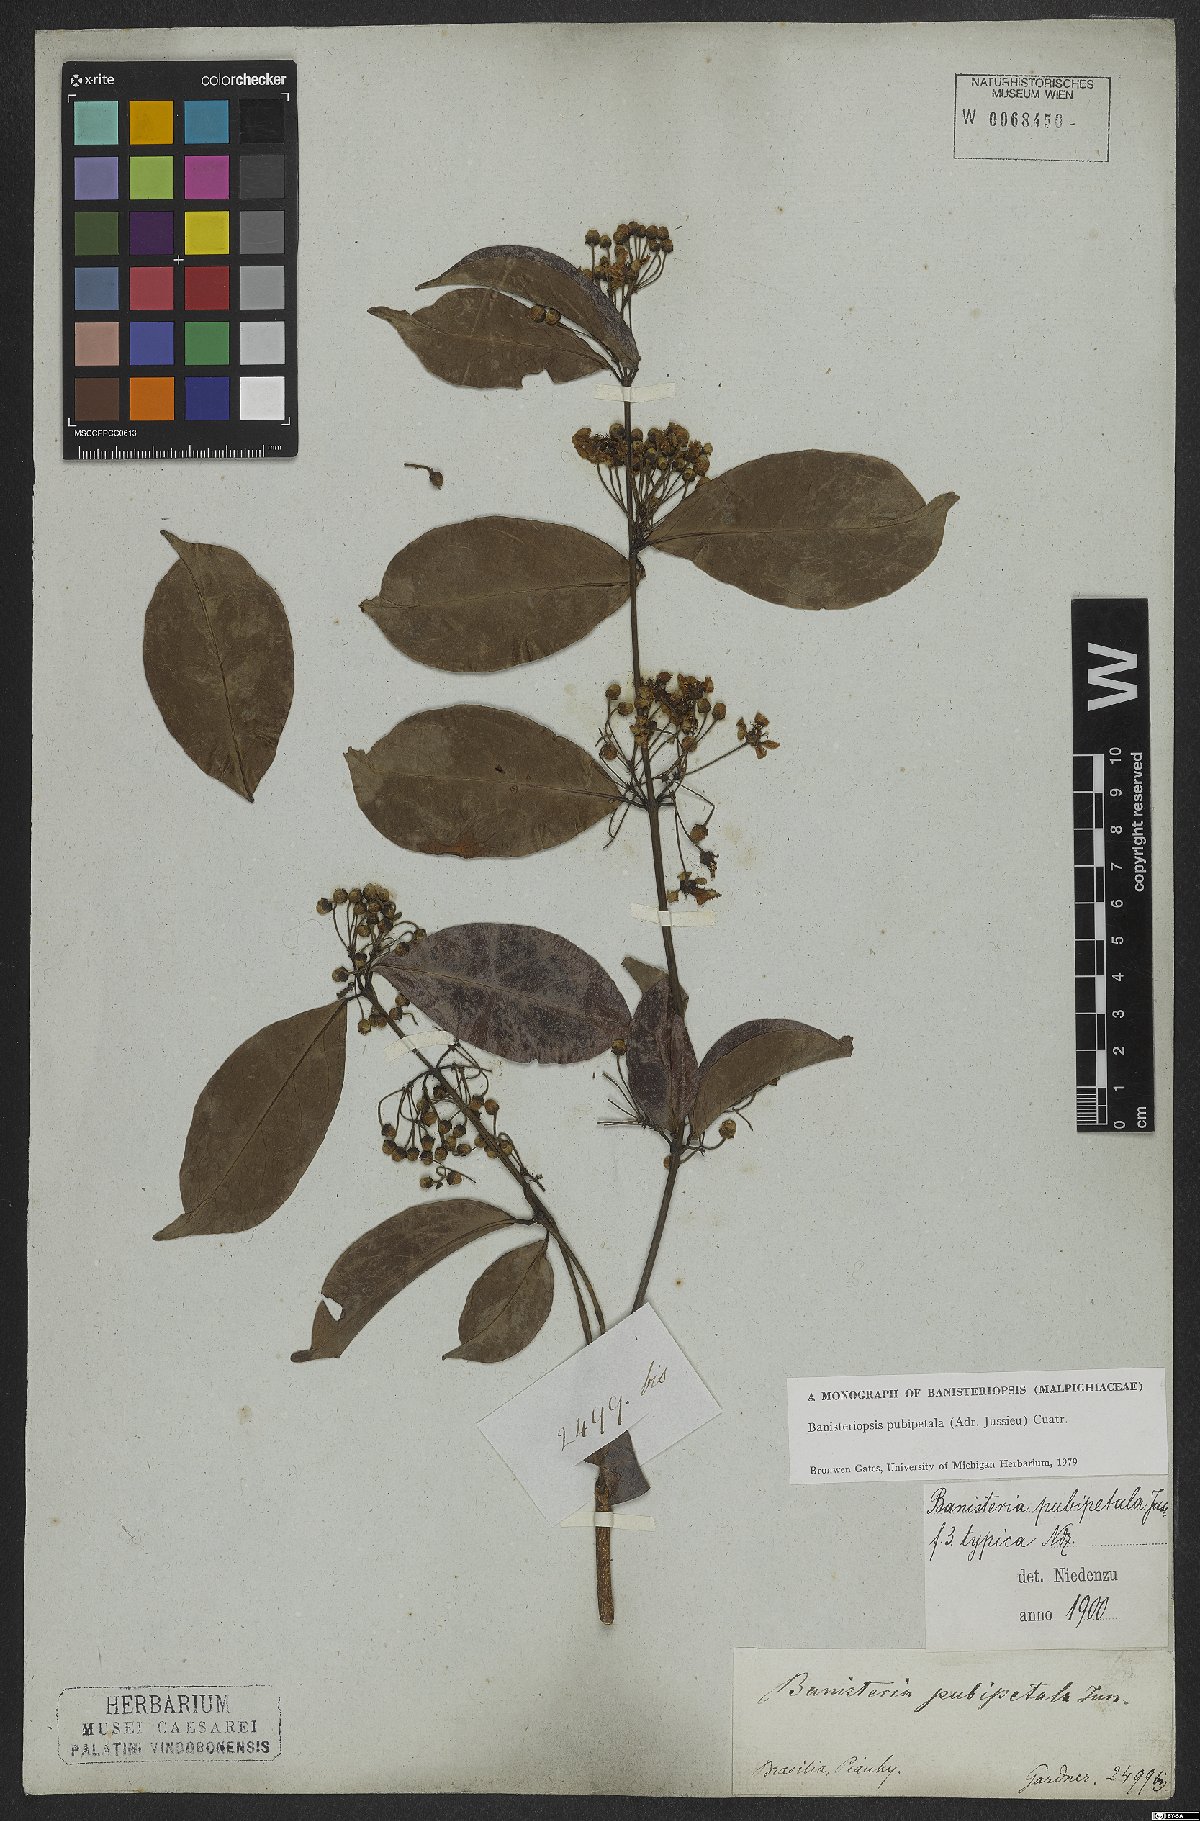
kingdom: Plantae
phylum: Tracheophyta
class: Magnoliopsida
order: Malpighiales
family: Malpighiaceae
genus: Diplopterys
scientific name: Diplopterys pubipetala
